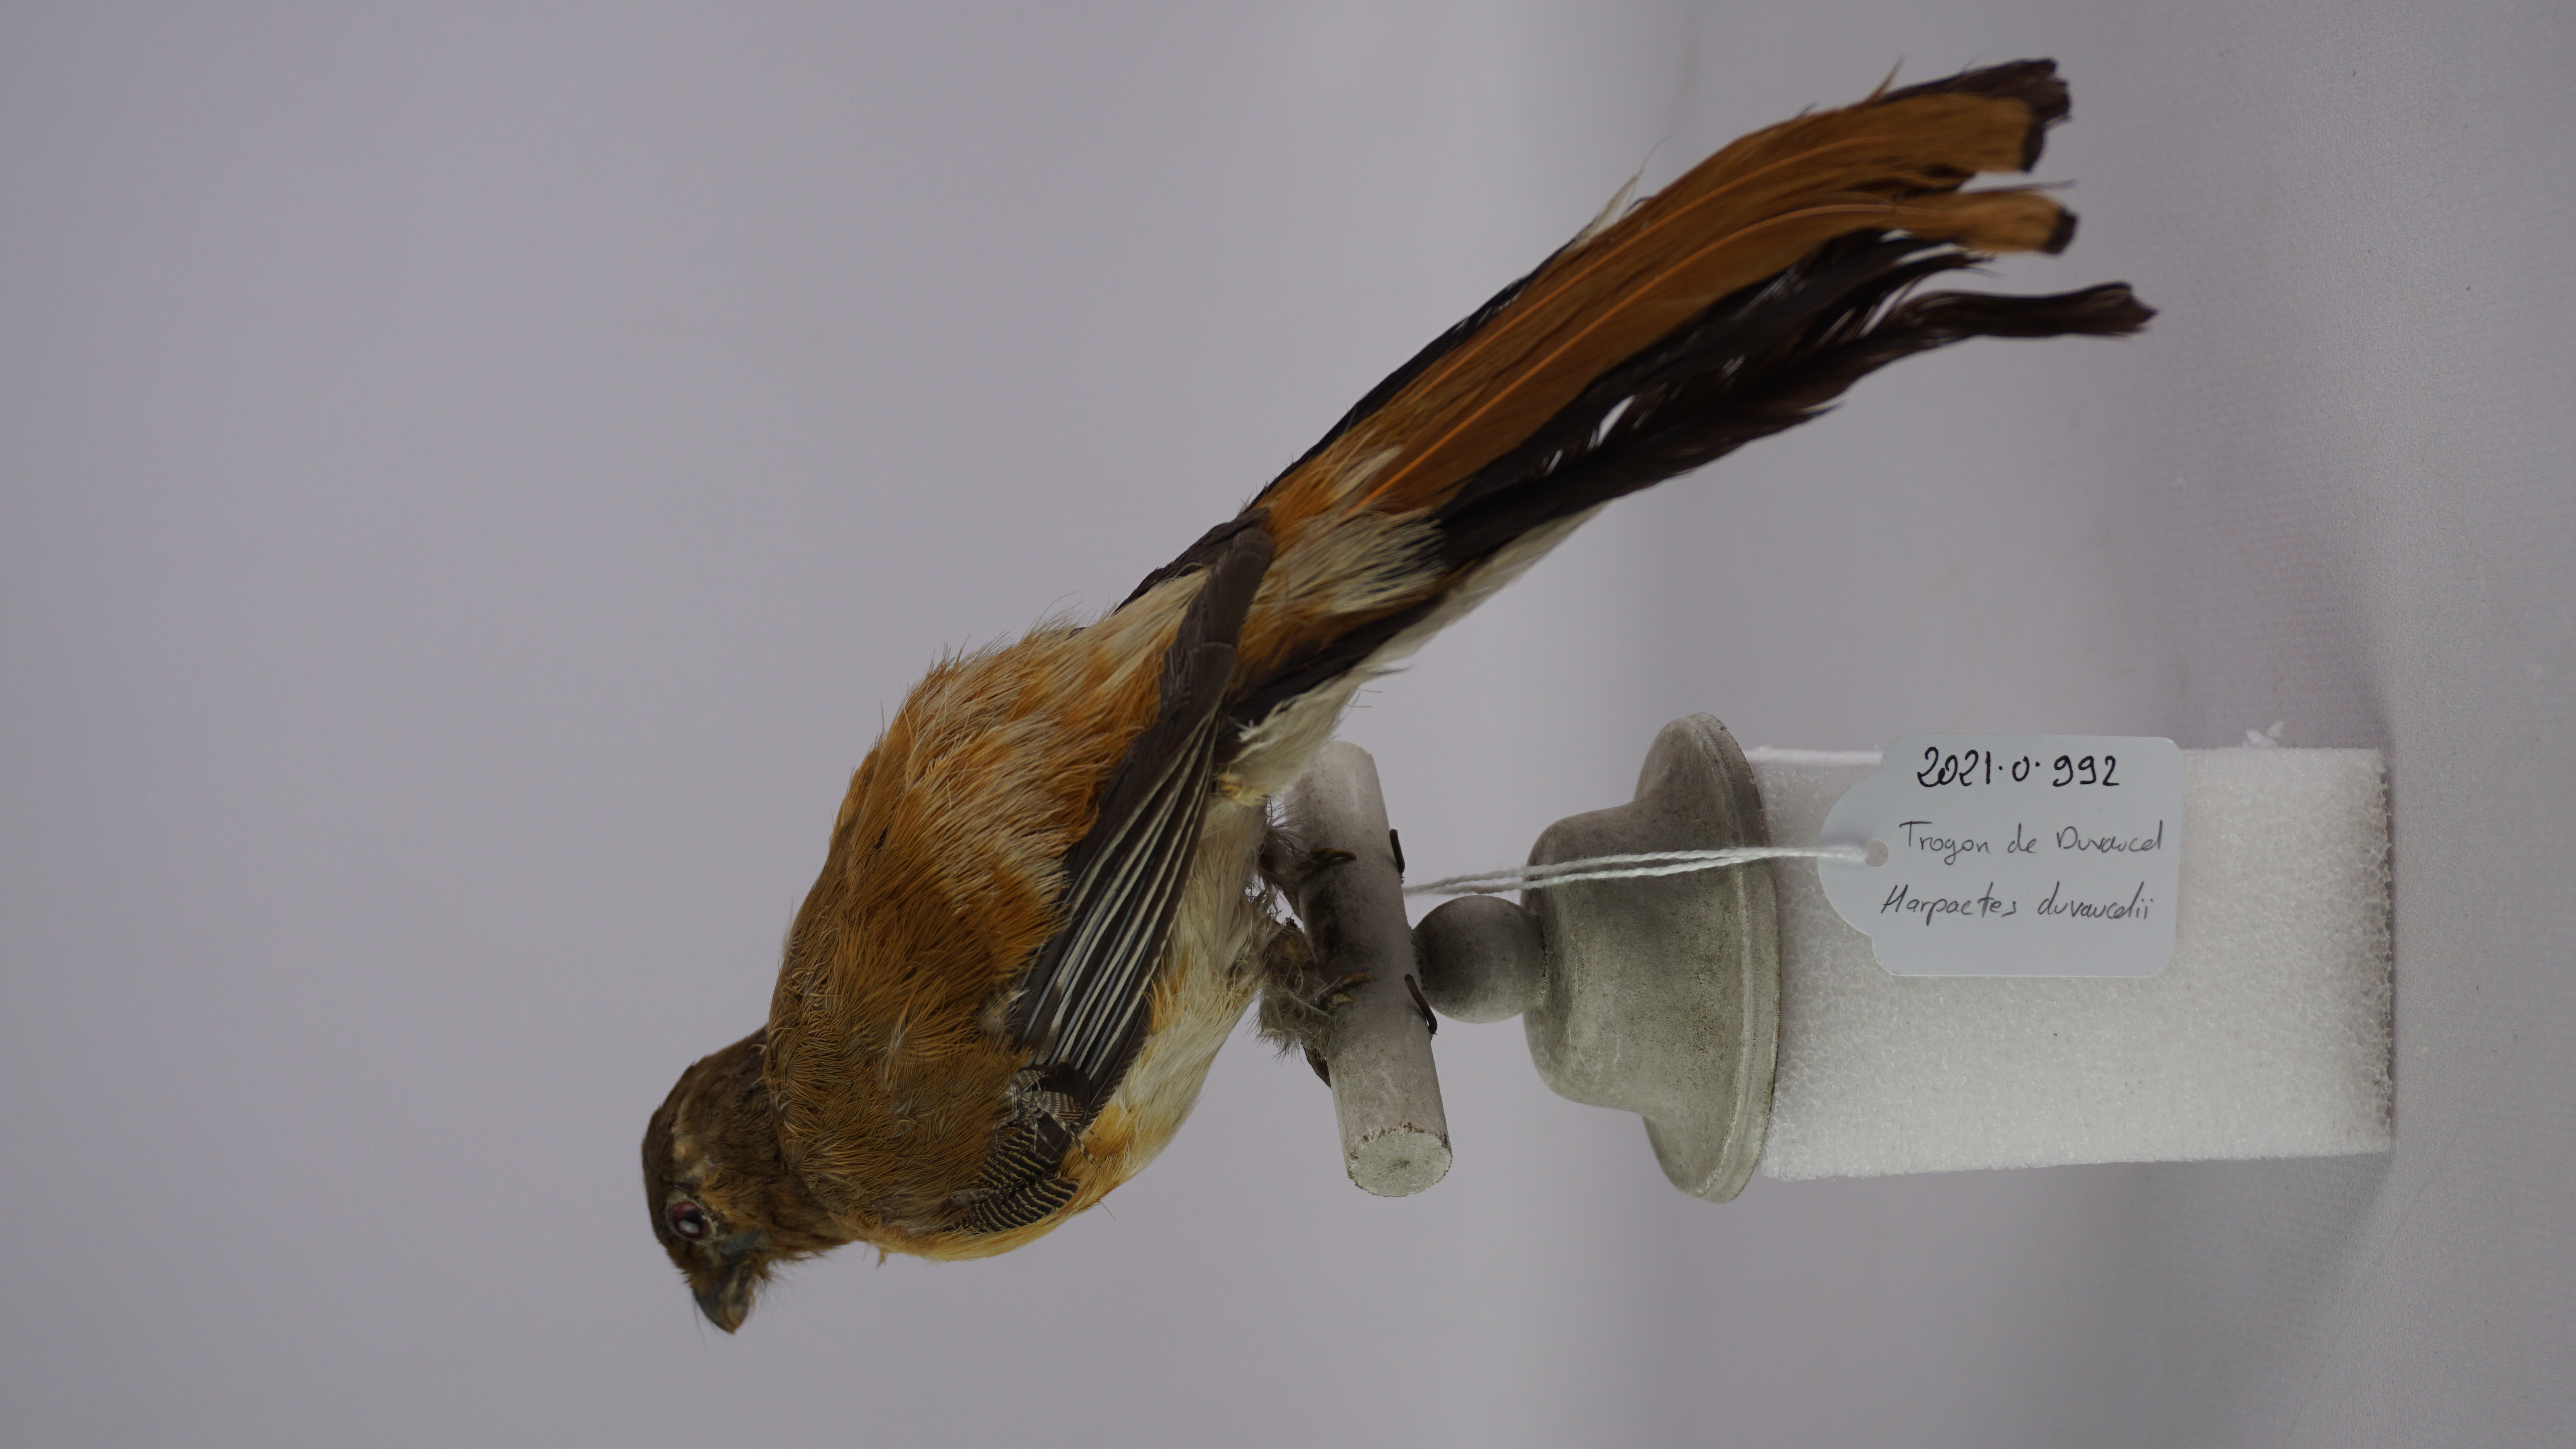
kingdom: Animalia
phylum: Chordata
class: Aves
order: Trogoniformes
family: Trogonidae
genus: Harpactes
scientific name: Harpactes duvaucelii
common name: Scarlet-rumped trogon
